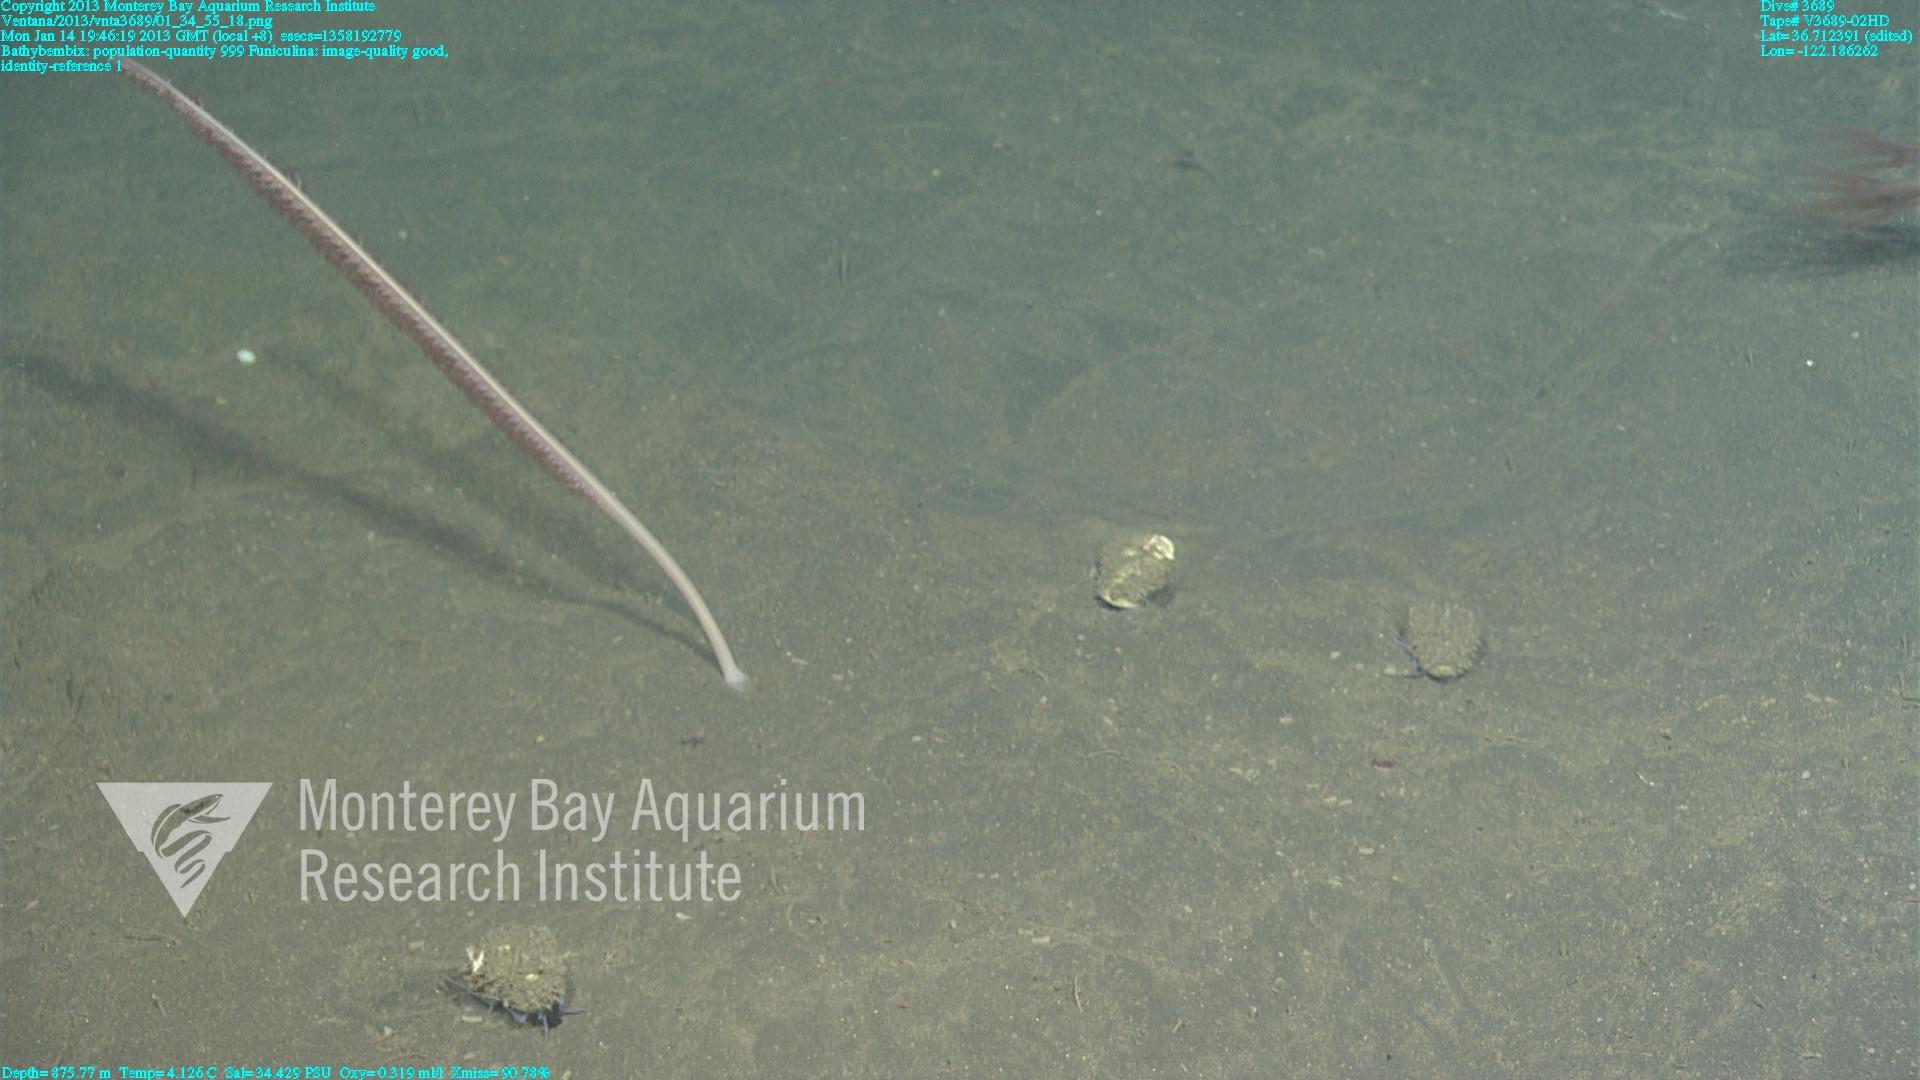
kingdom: Animalia
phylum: Cnidaria
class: Anthozoa
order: Scleralcyonacea
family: Funiculinidae
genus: Funiculina
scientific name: Funiculina
